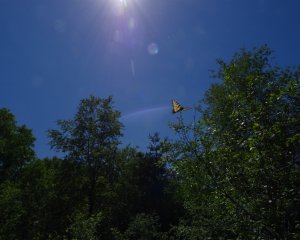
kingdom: Animalia
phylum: Arthropoda
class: Insecta
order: Lepidoptera
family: Papilionidae
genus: Pterourus
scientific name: Pterourus glaucus
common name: Eastern Tiger Swallowtail
